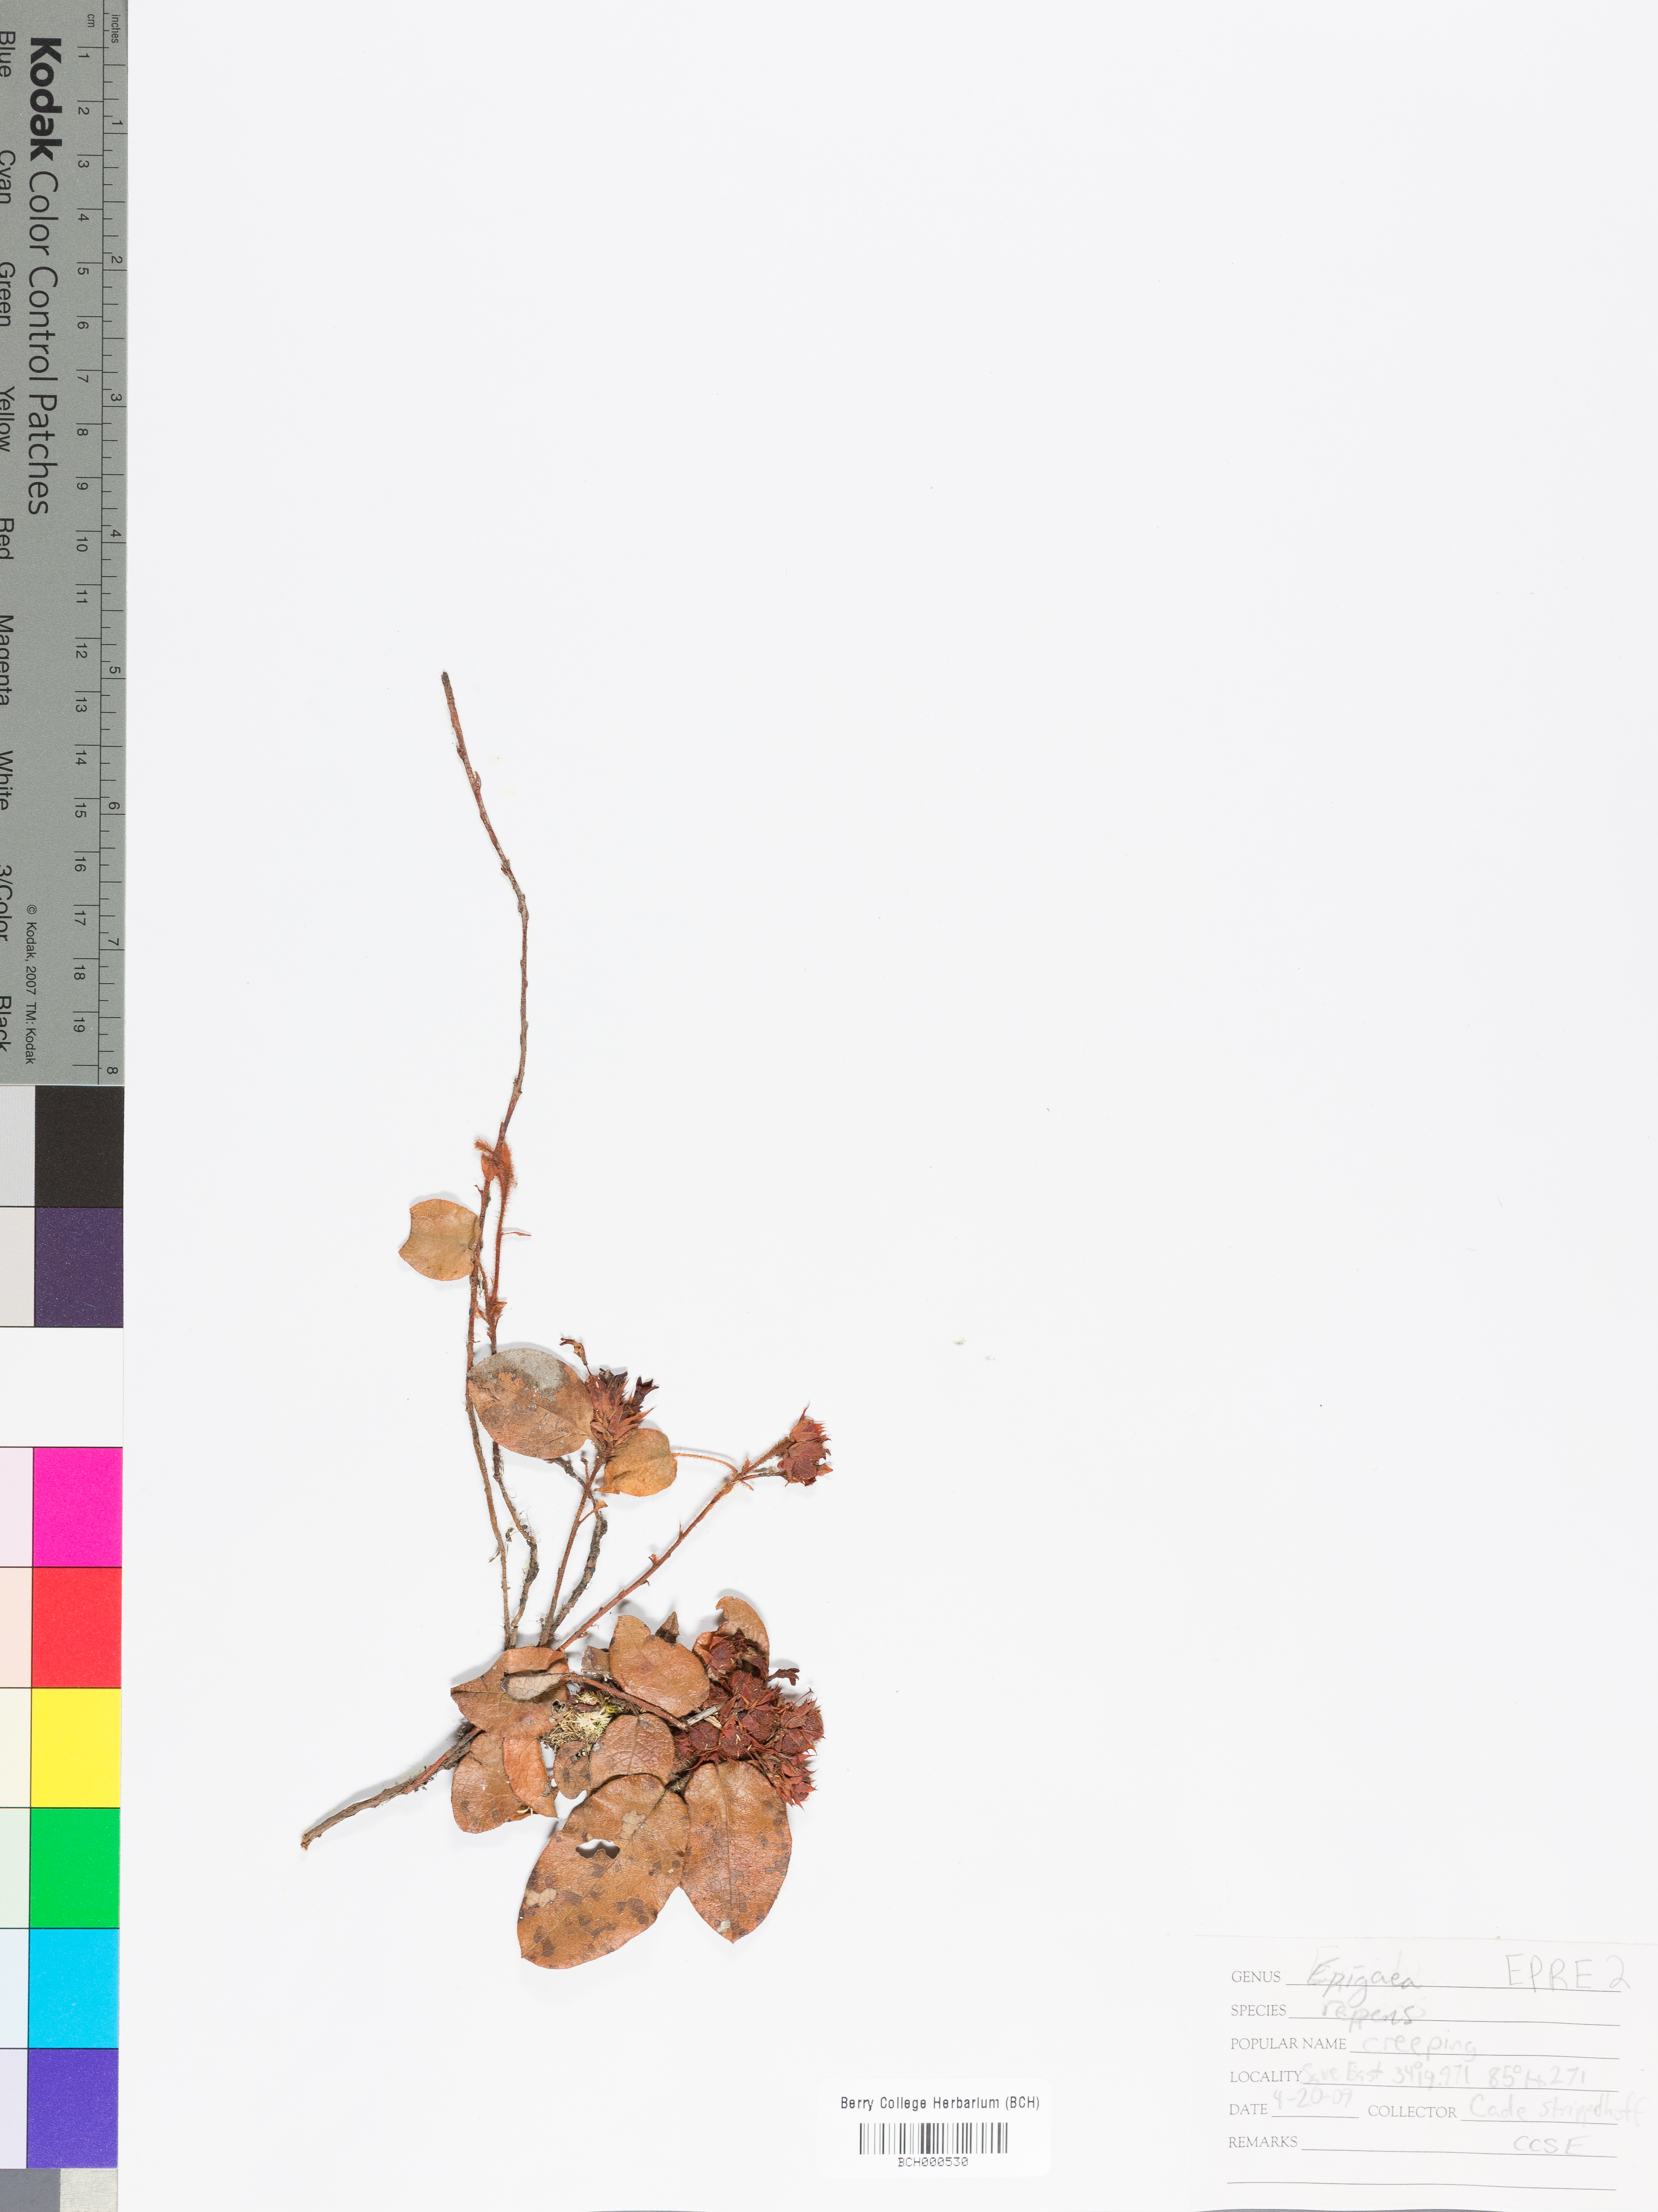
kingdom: Plantae
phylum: Tracheophyta
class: Magnoliopsida
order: Ericales
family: Ericaceae
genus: Epigaea
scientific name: Epigaea repens
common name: Gravelroot
